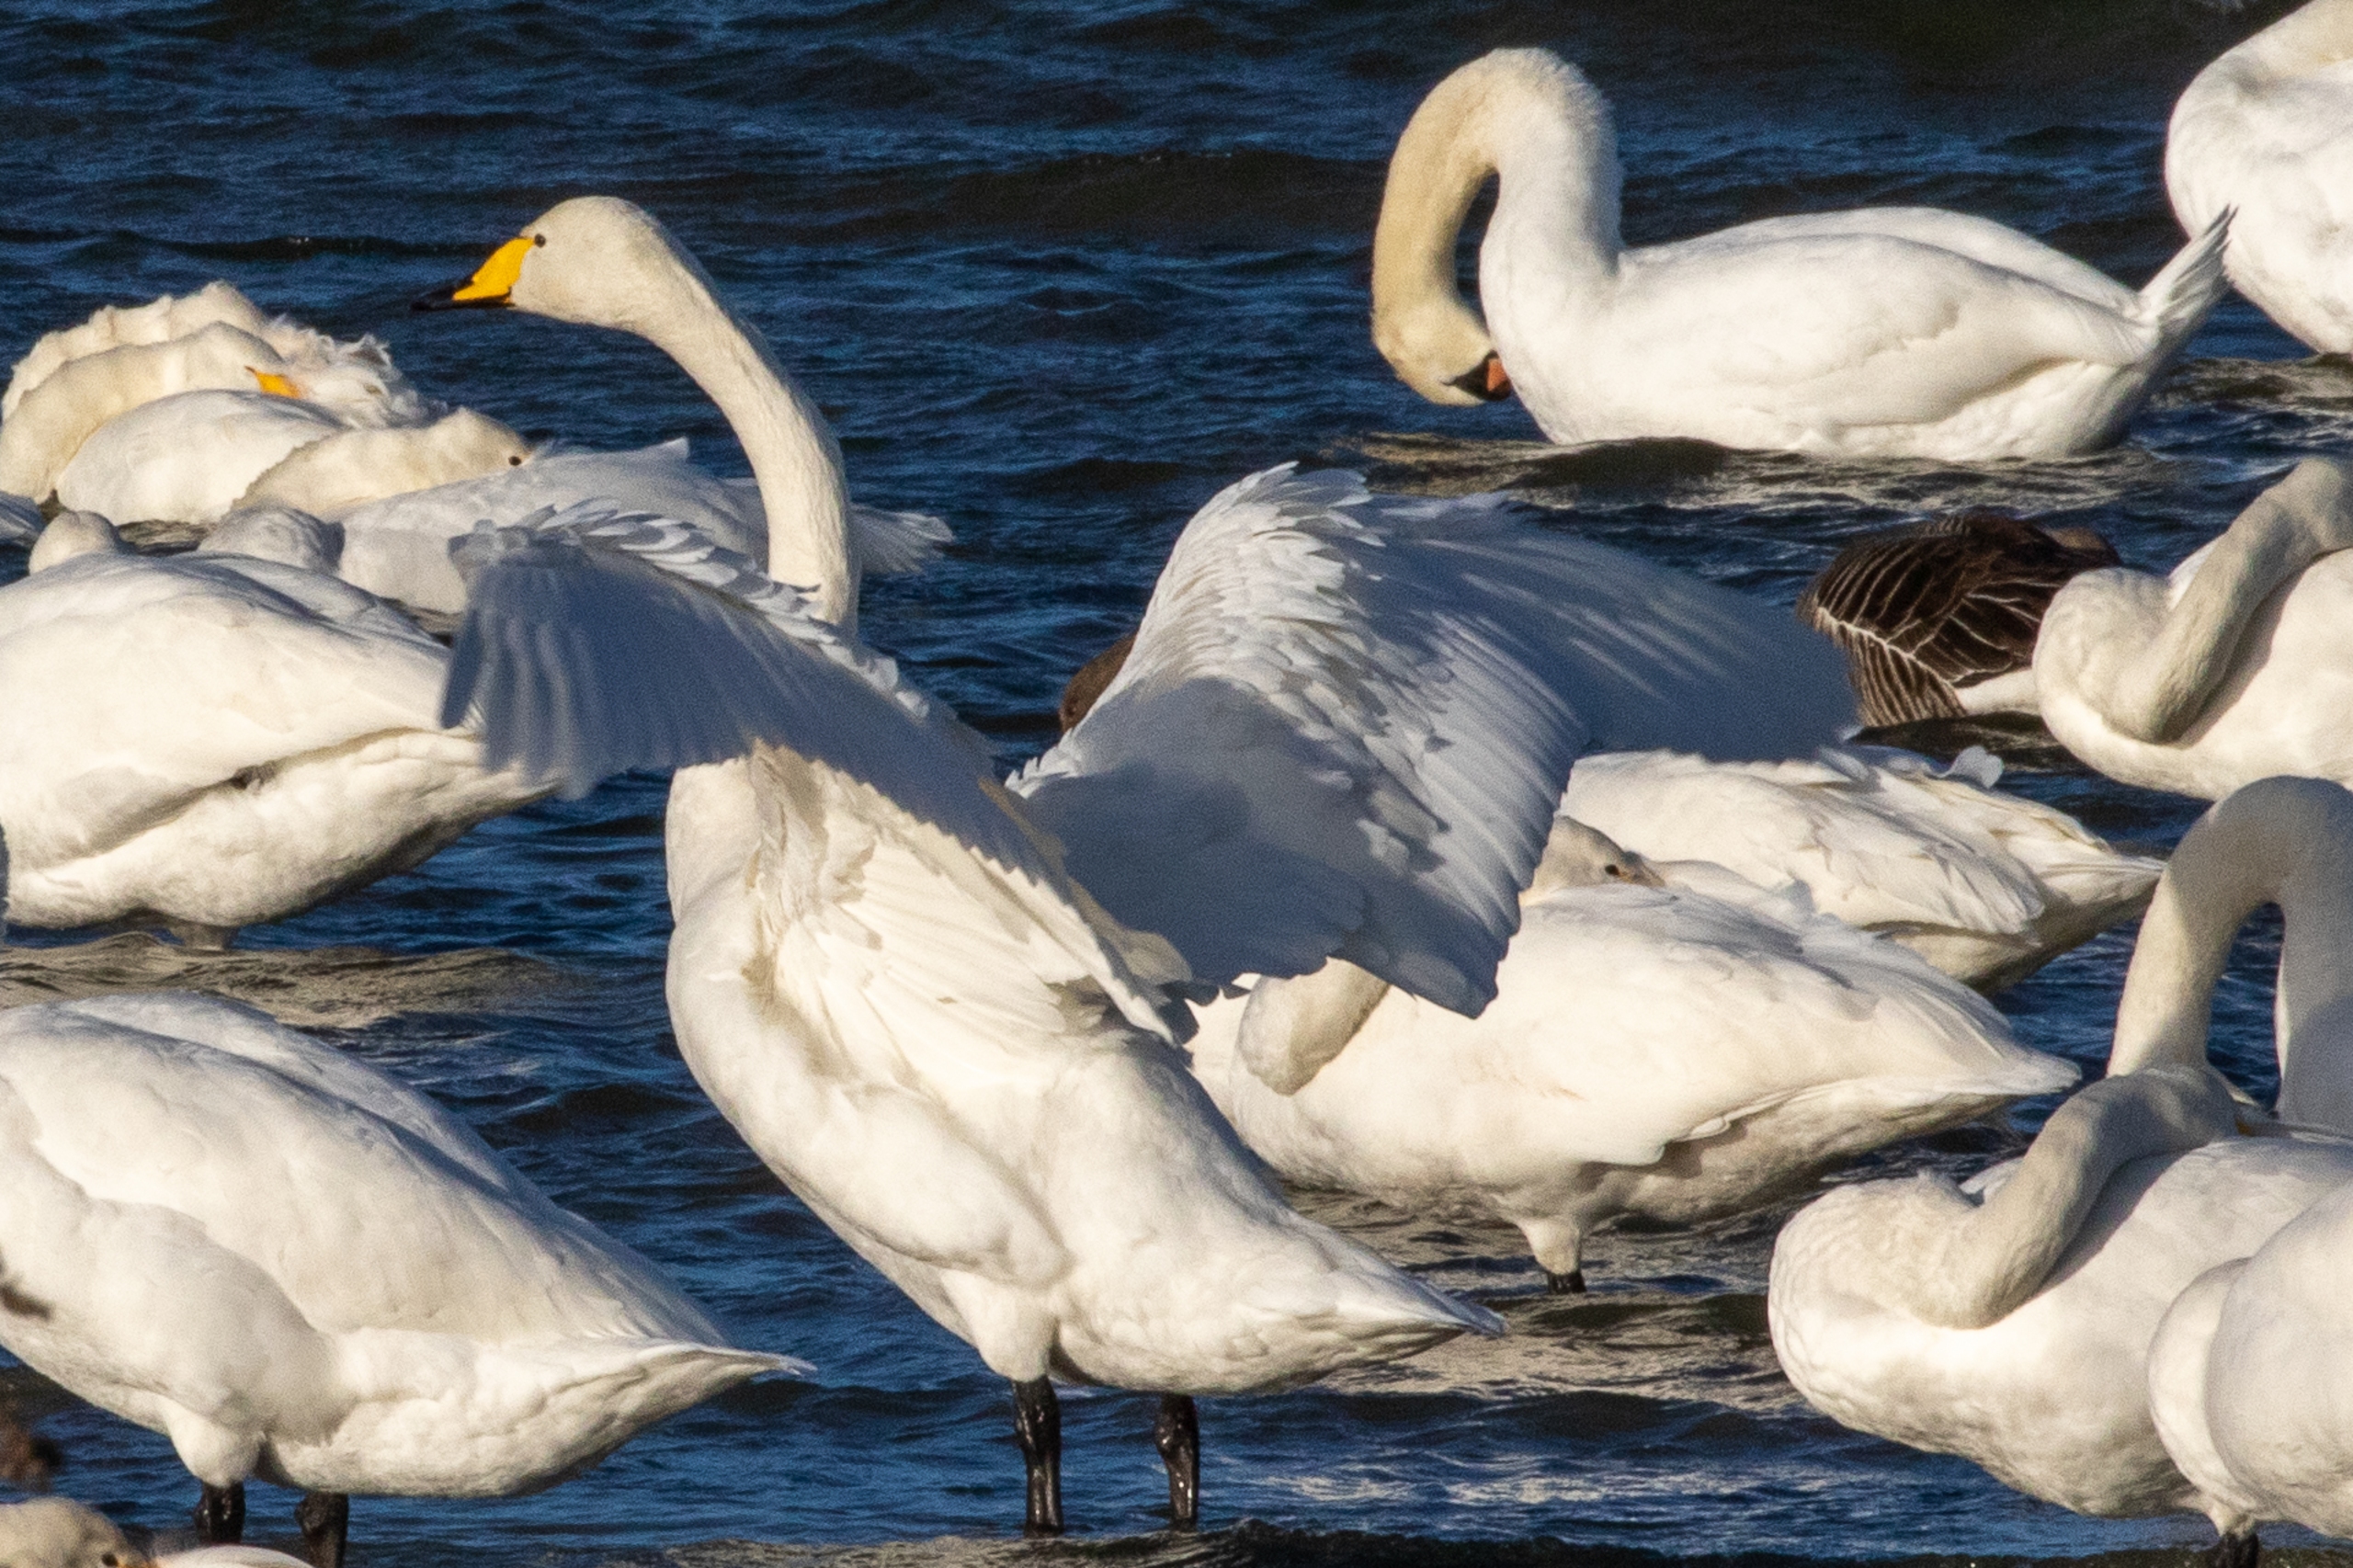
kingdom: Animalia
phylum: Chordata
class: Aves
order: Anseriformes
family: Anatidae
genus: Cygnus
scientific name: Cygnus cygnus
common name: Sangsvane
